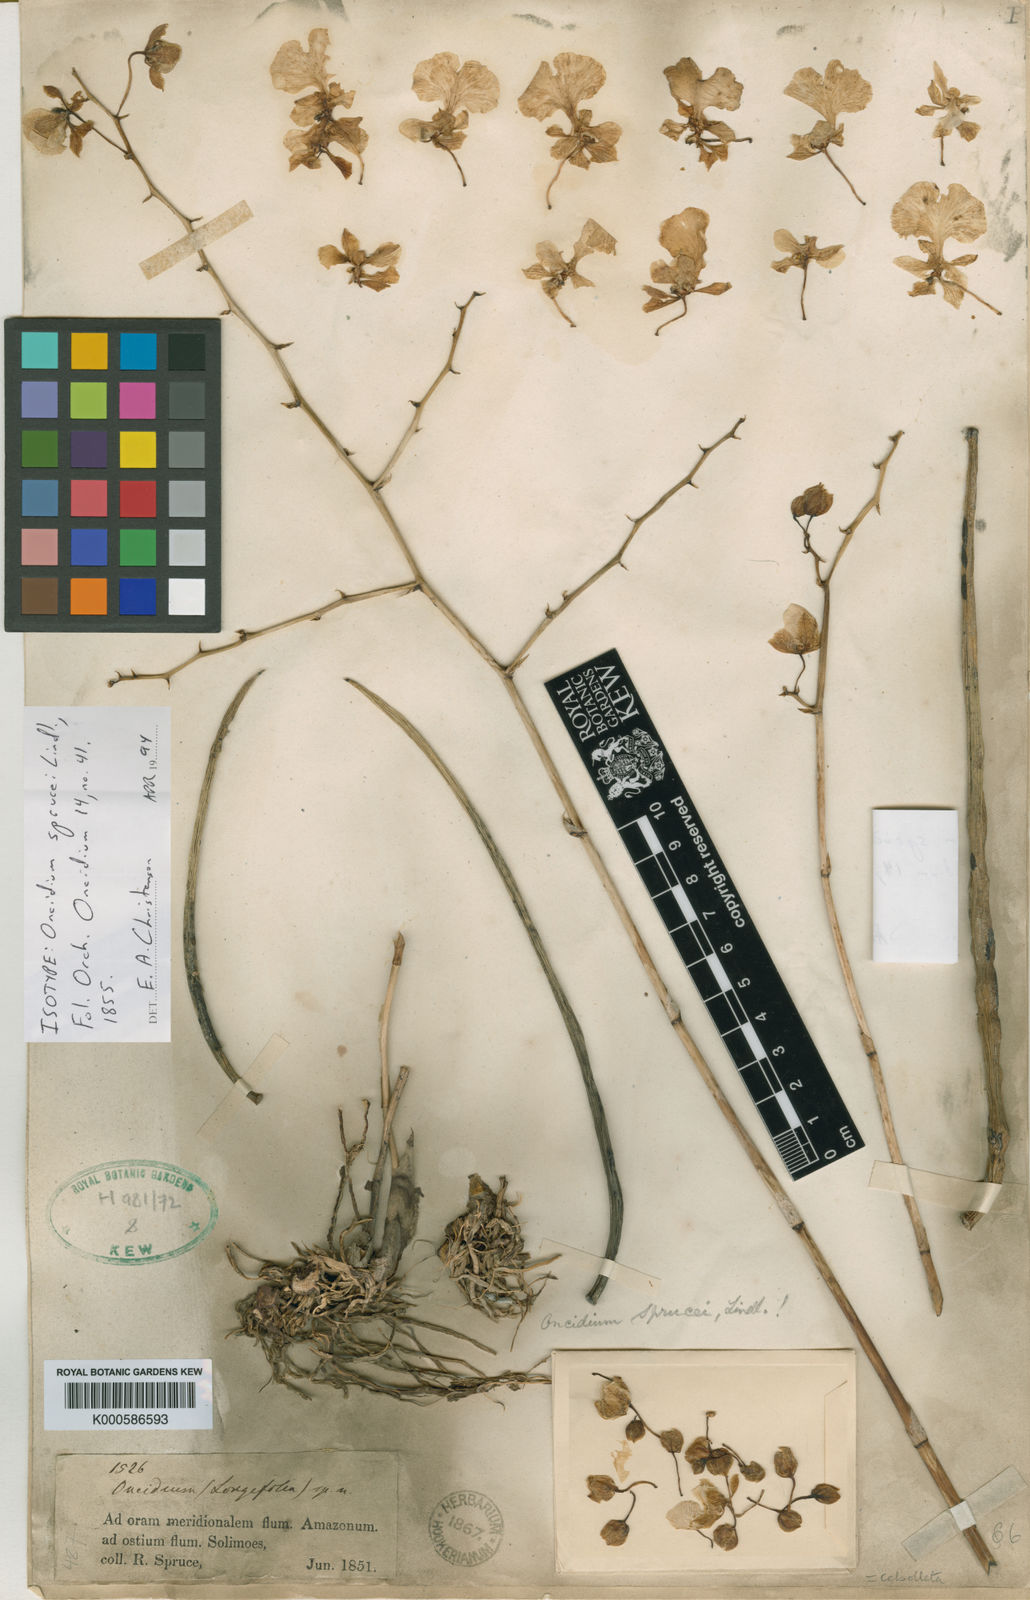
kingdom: Plantae
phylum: Tracheophyta
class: Liliopsida
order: Asparagales
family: Orchidaceae
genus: Trichocentrum
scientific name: Trichocentrum sprucei
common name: Rat-tail orchid
